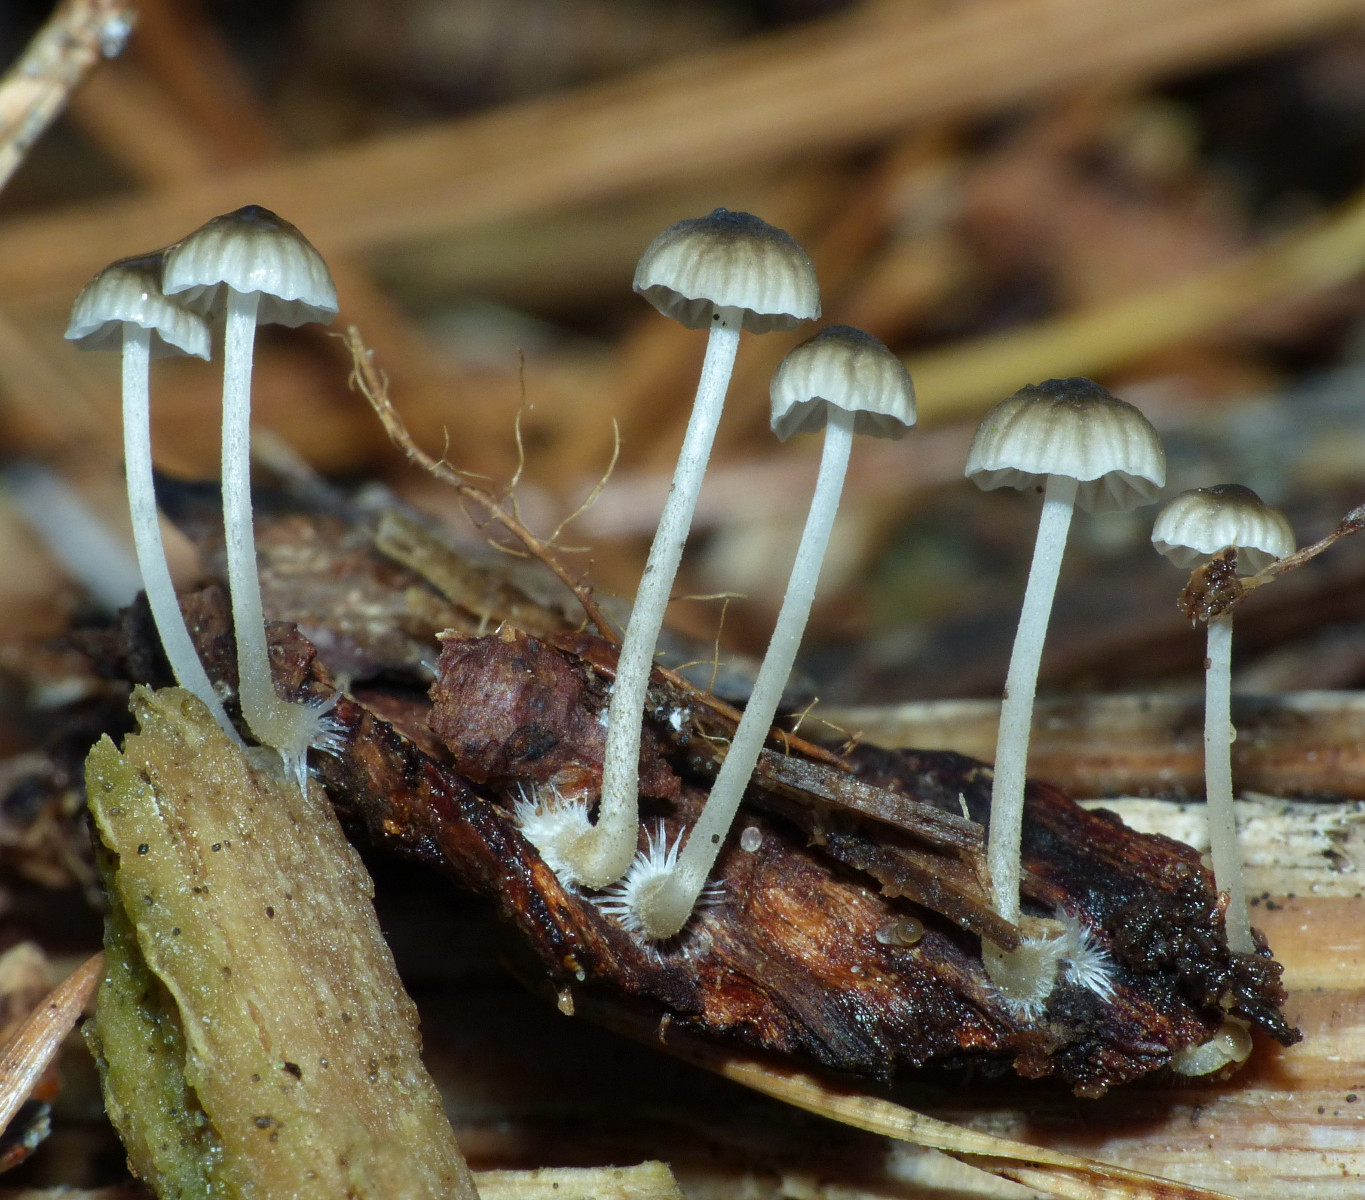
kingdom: Fungi
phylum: Basidiomycota
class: Agaricomycetes
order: Agaricales
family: Porotheleaceae
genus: Phloeomana
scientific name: Phloeomana speirea
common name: kvist-huesvamp
